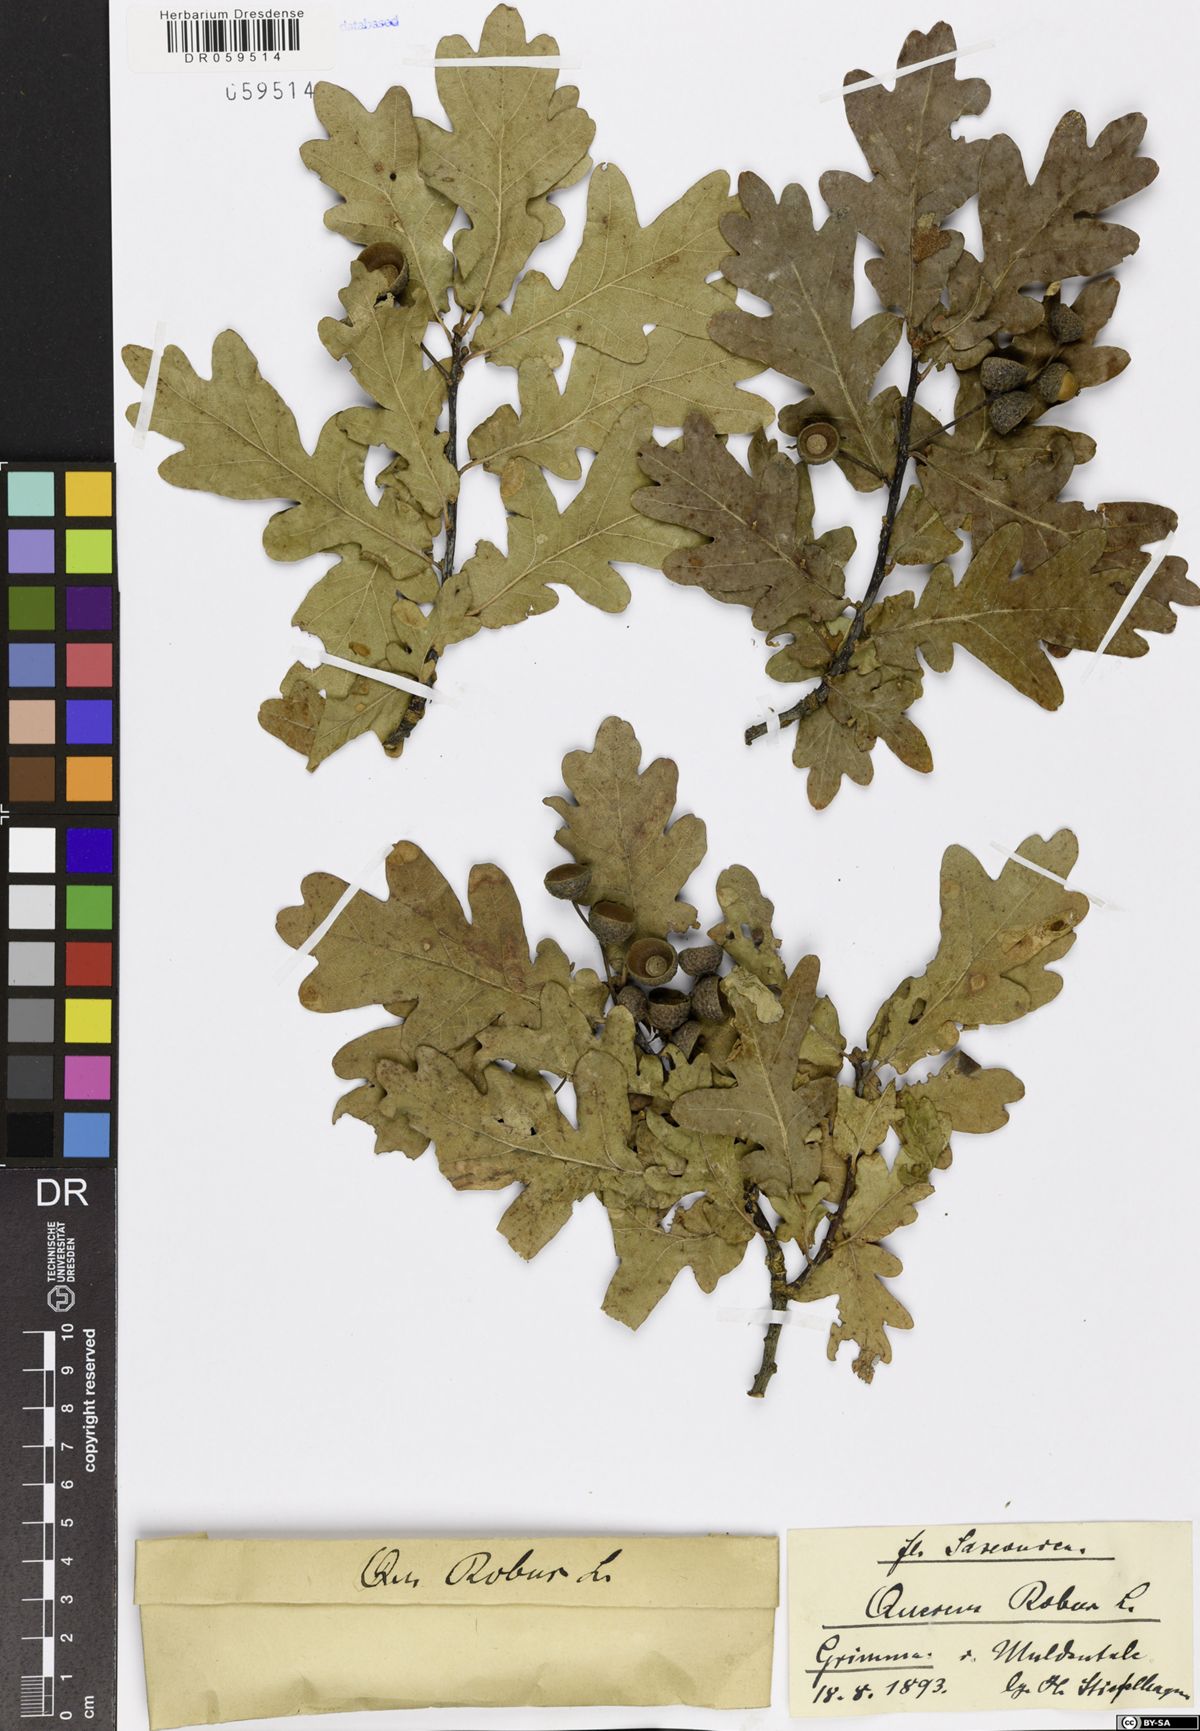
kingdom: Plantae
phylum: Tracheophyta
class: Magnoliopsida
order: Fagales
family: Fagaceae
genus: Quercus
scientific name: Quercus robur
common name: Pedunculate oak
